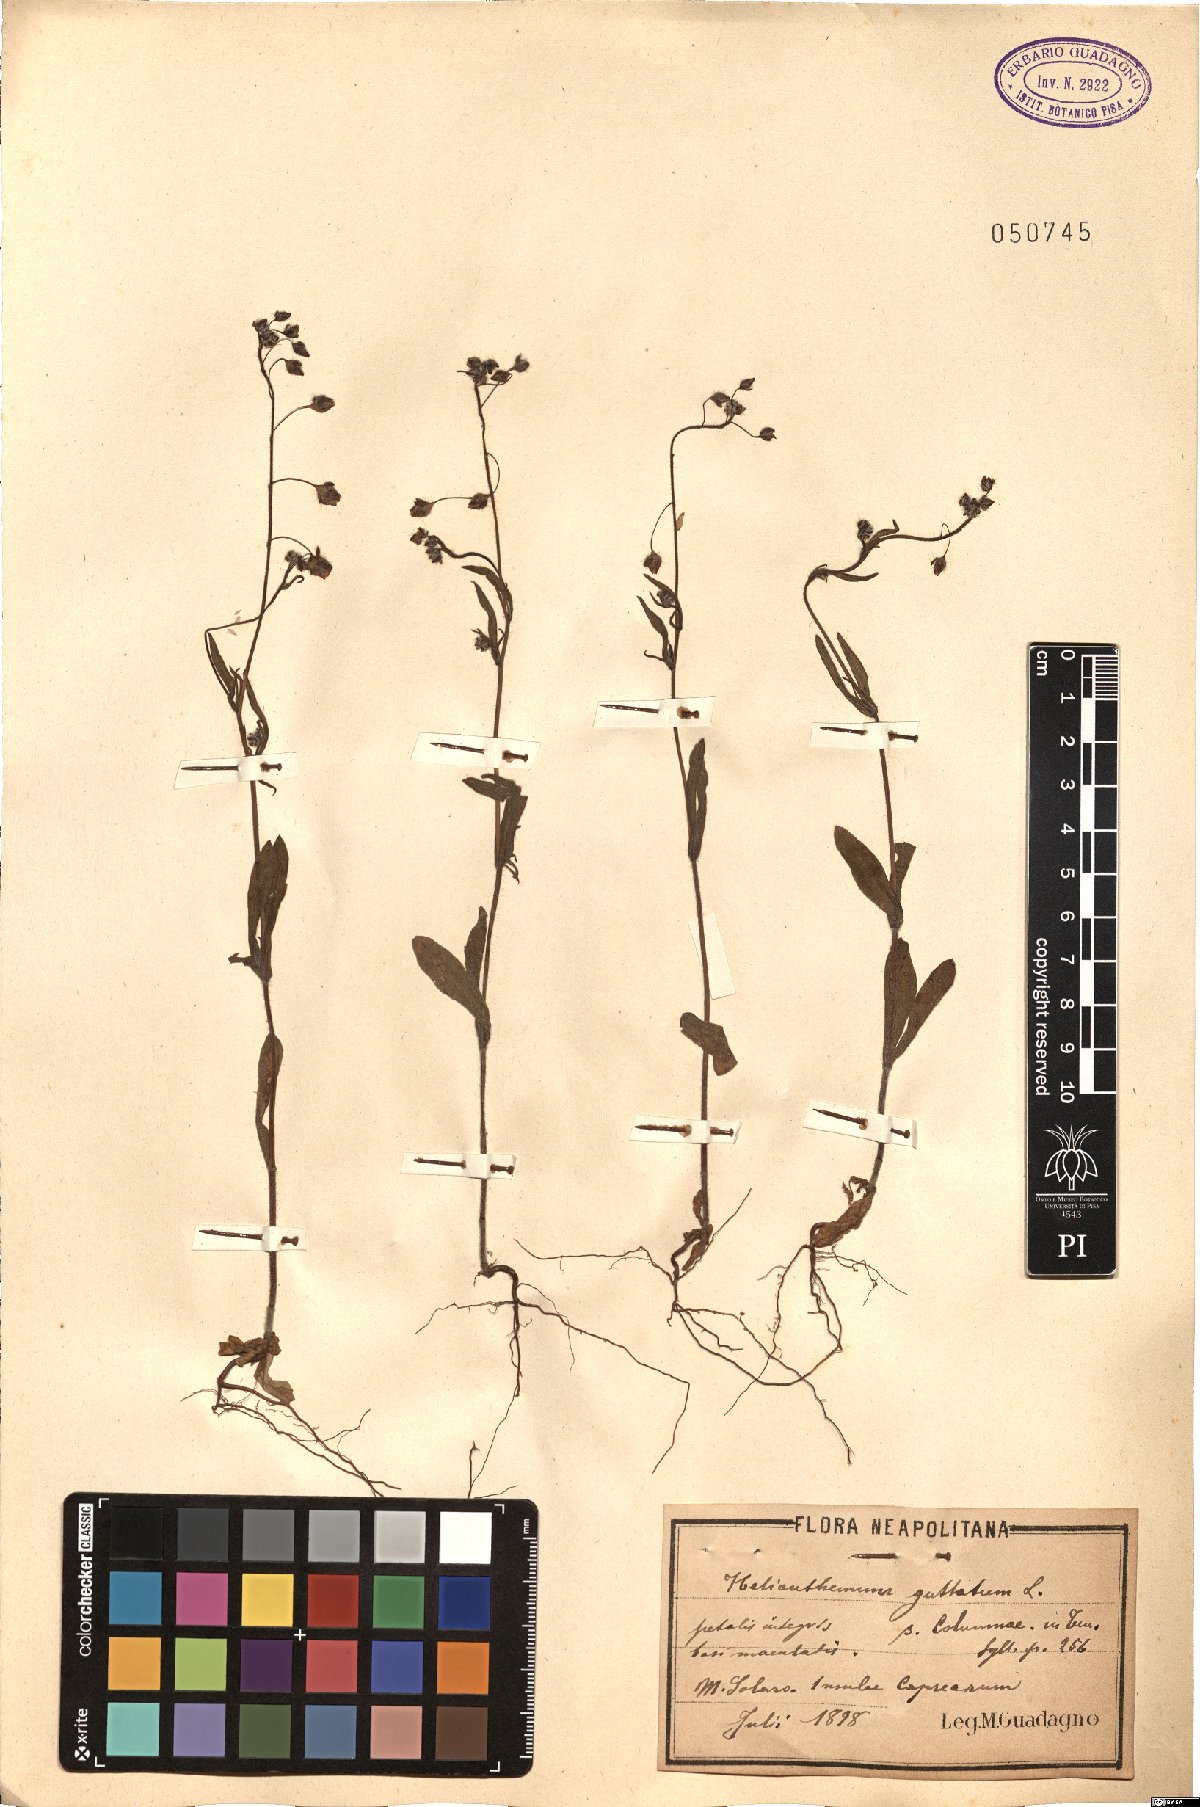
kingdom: Plantae
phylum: Tracheophyta
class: Magnoliopsida
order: Malvales
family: Cistaceae
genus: Tuberaria
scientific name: Tuberaria guttata
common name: Spotted rock-rose
